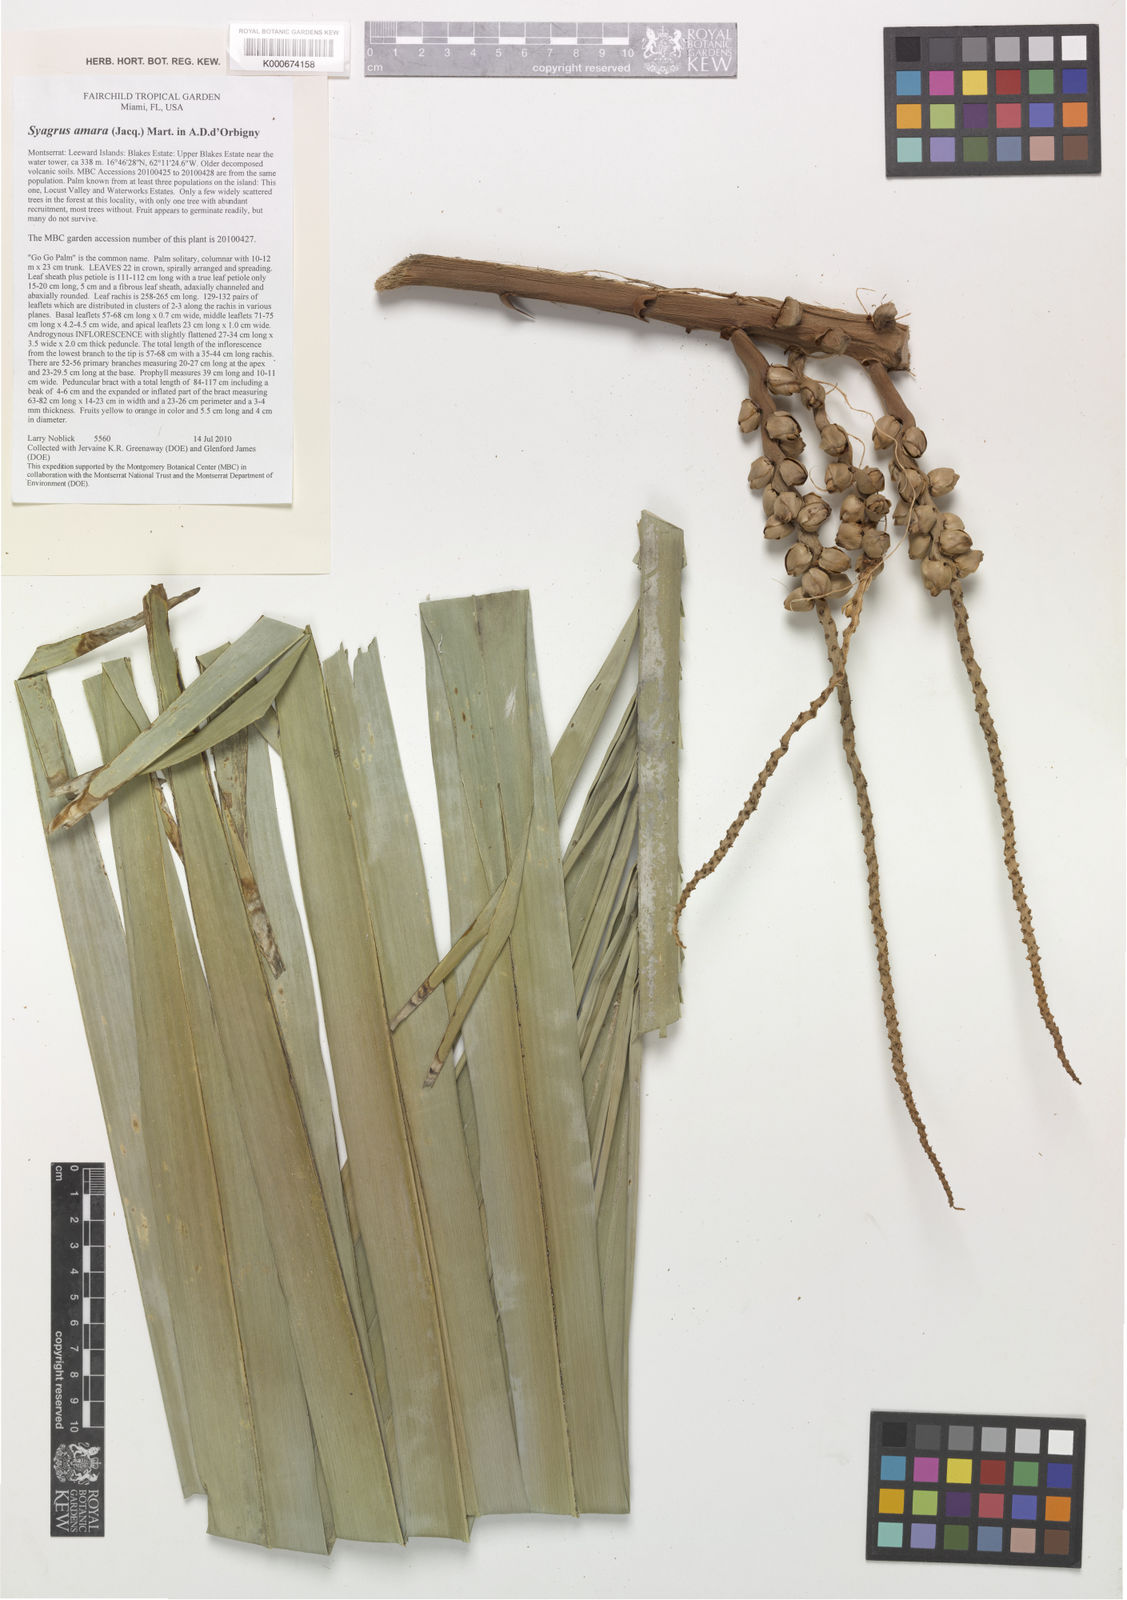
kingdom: Plantae
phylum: Tracheophyta
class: Liliopsida
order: Arecales
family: Arecaceae
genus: Syagrus
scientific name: Syagrus amara
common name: Overtop palm
